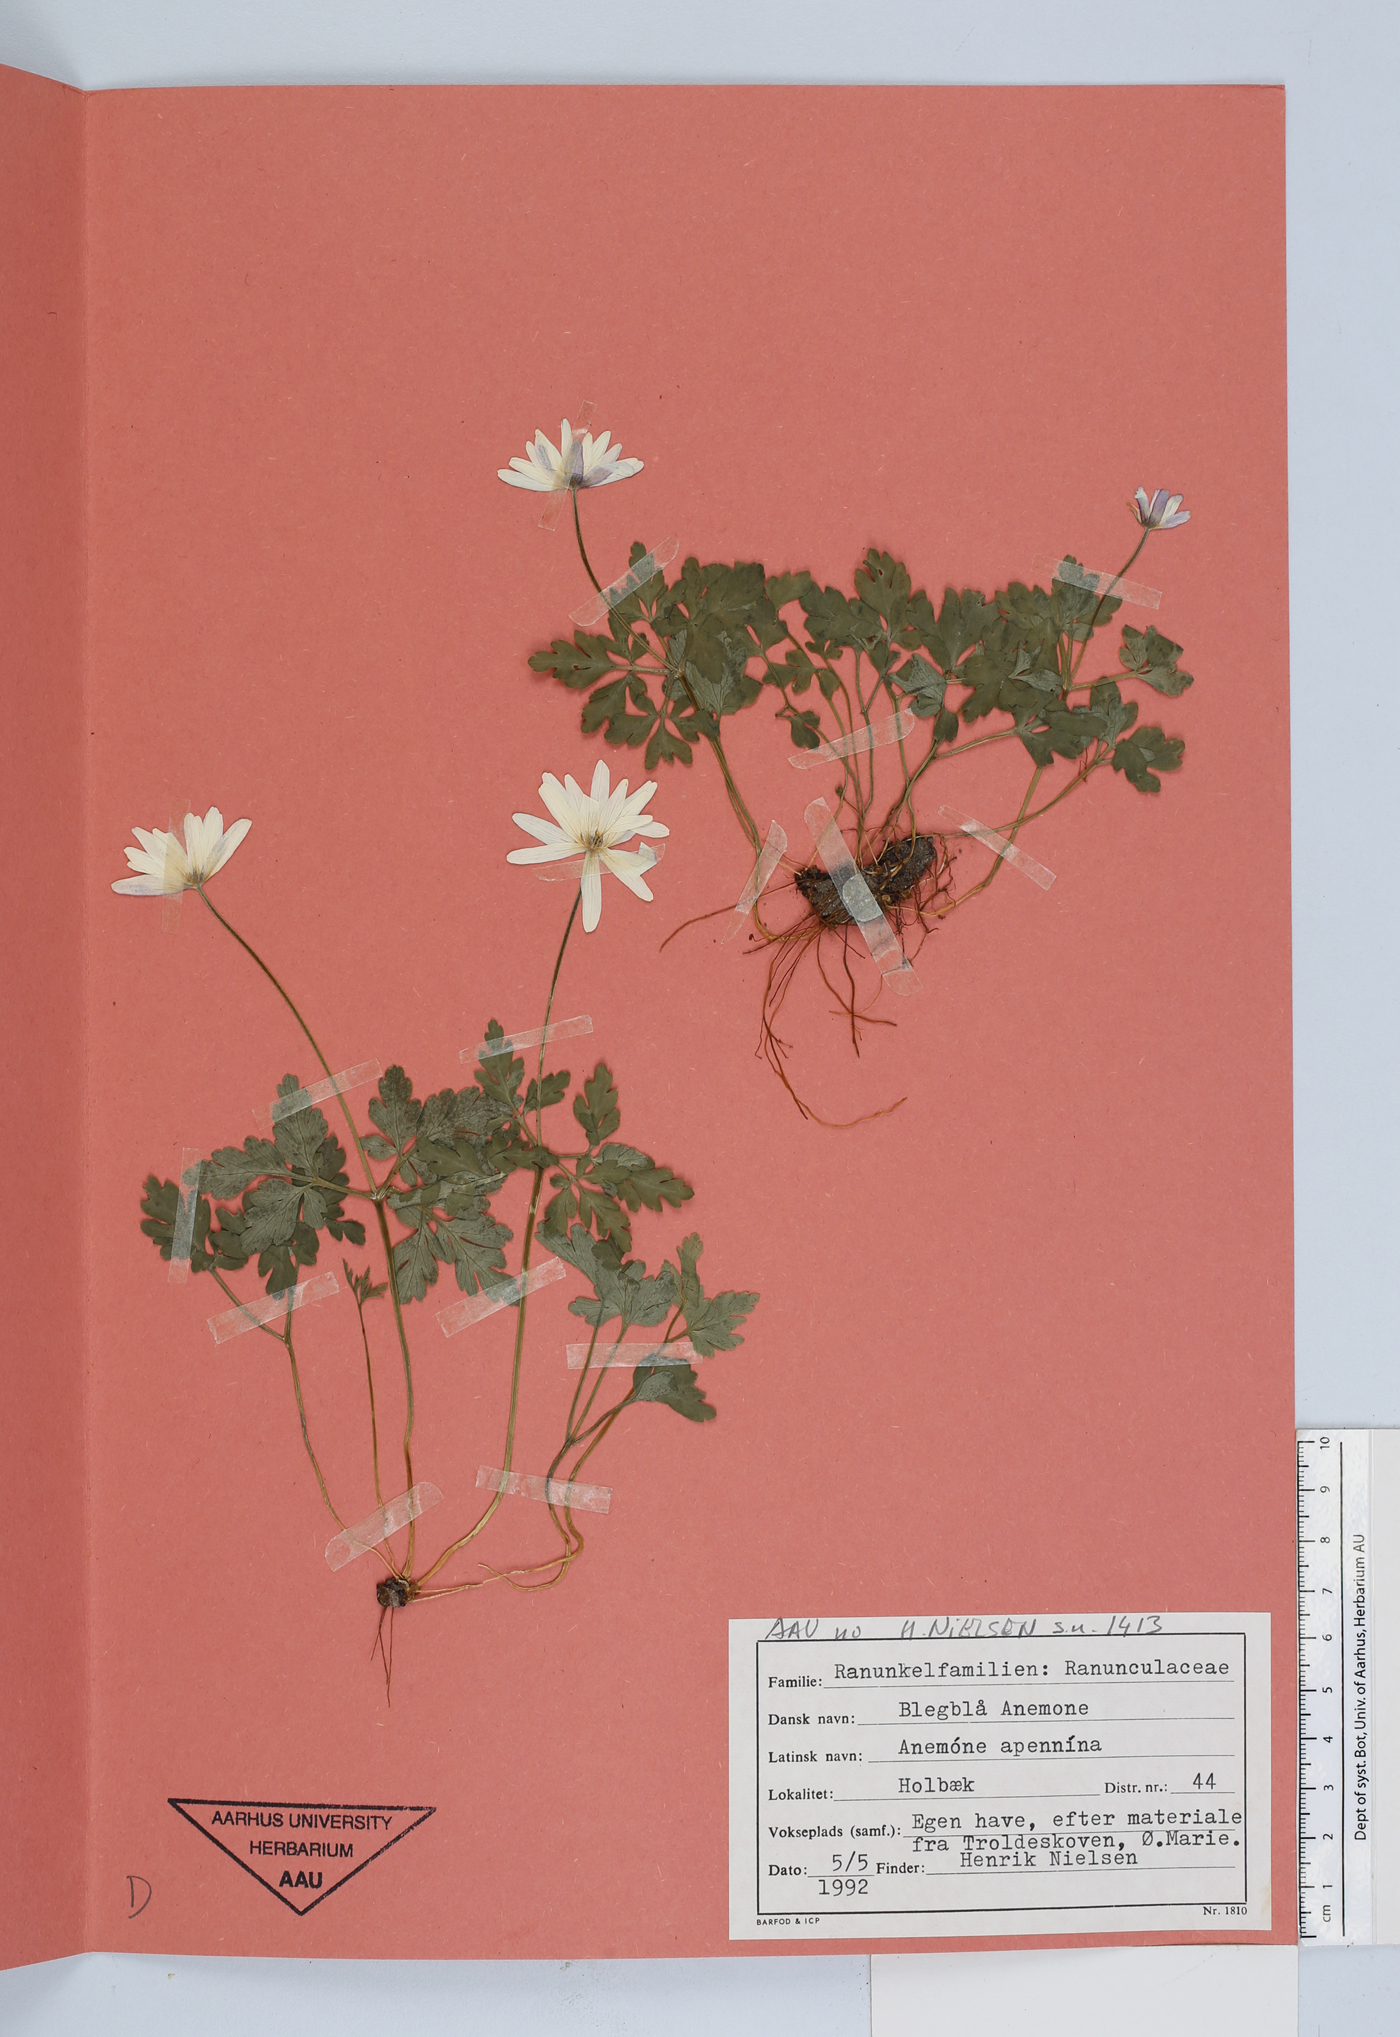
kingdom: Plantae
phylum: Tracheophyta
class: Magnoliopsida
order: Ranunculales
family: Ranunculaceae
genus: Anemone
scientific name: Anemone apennina
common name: Blue anemone
